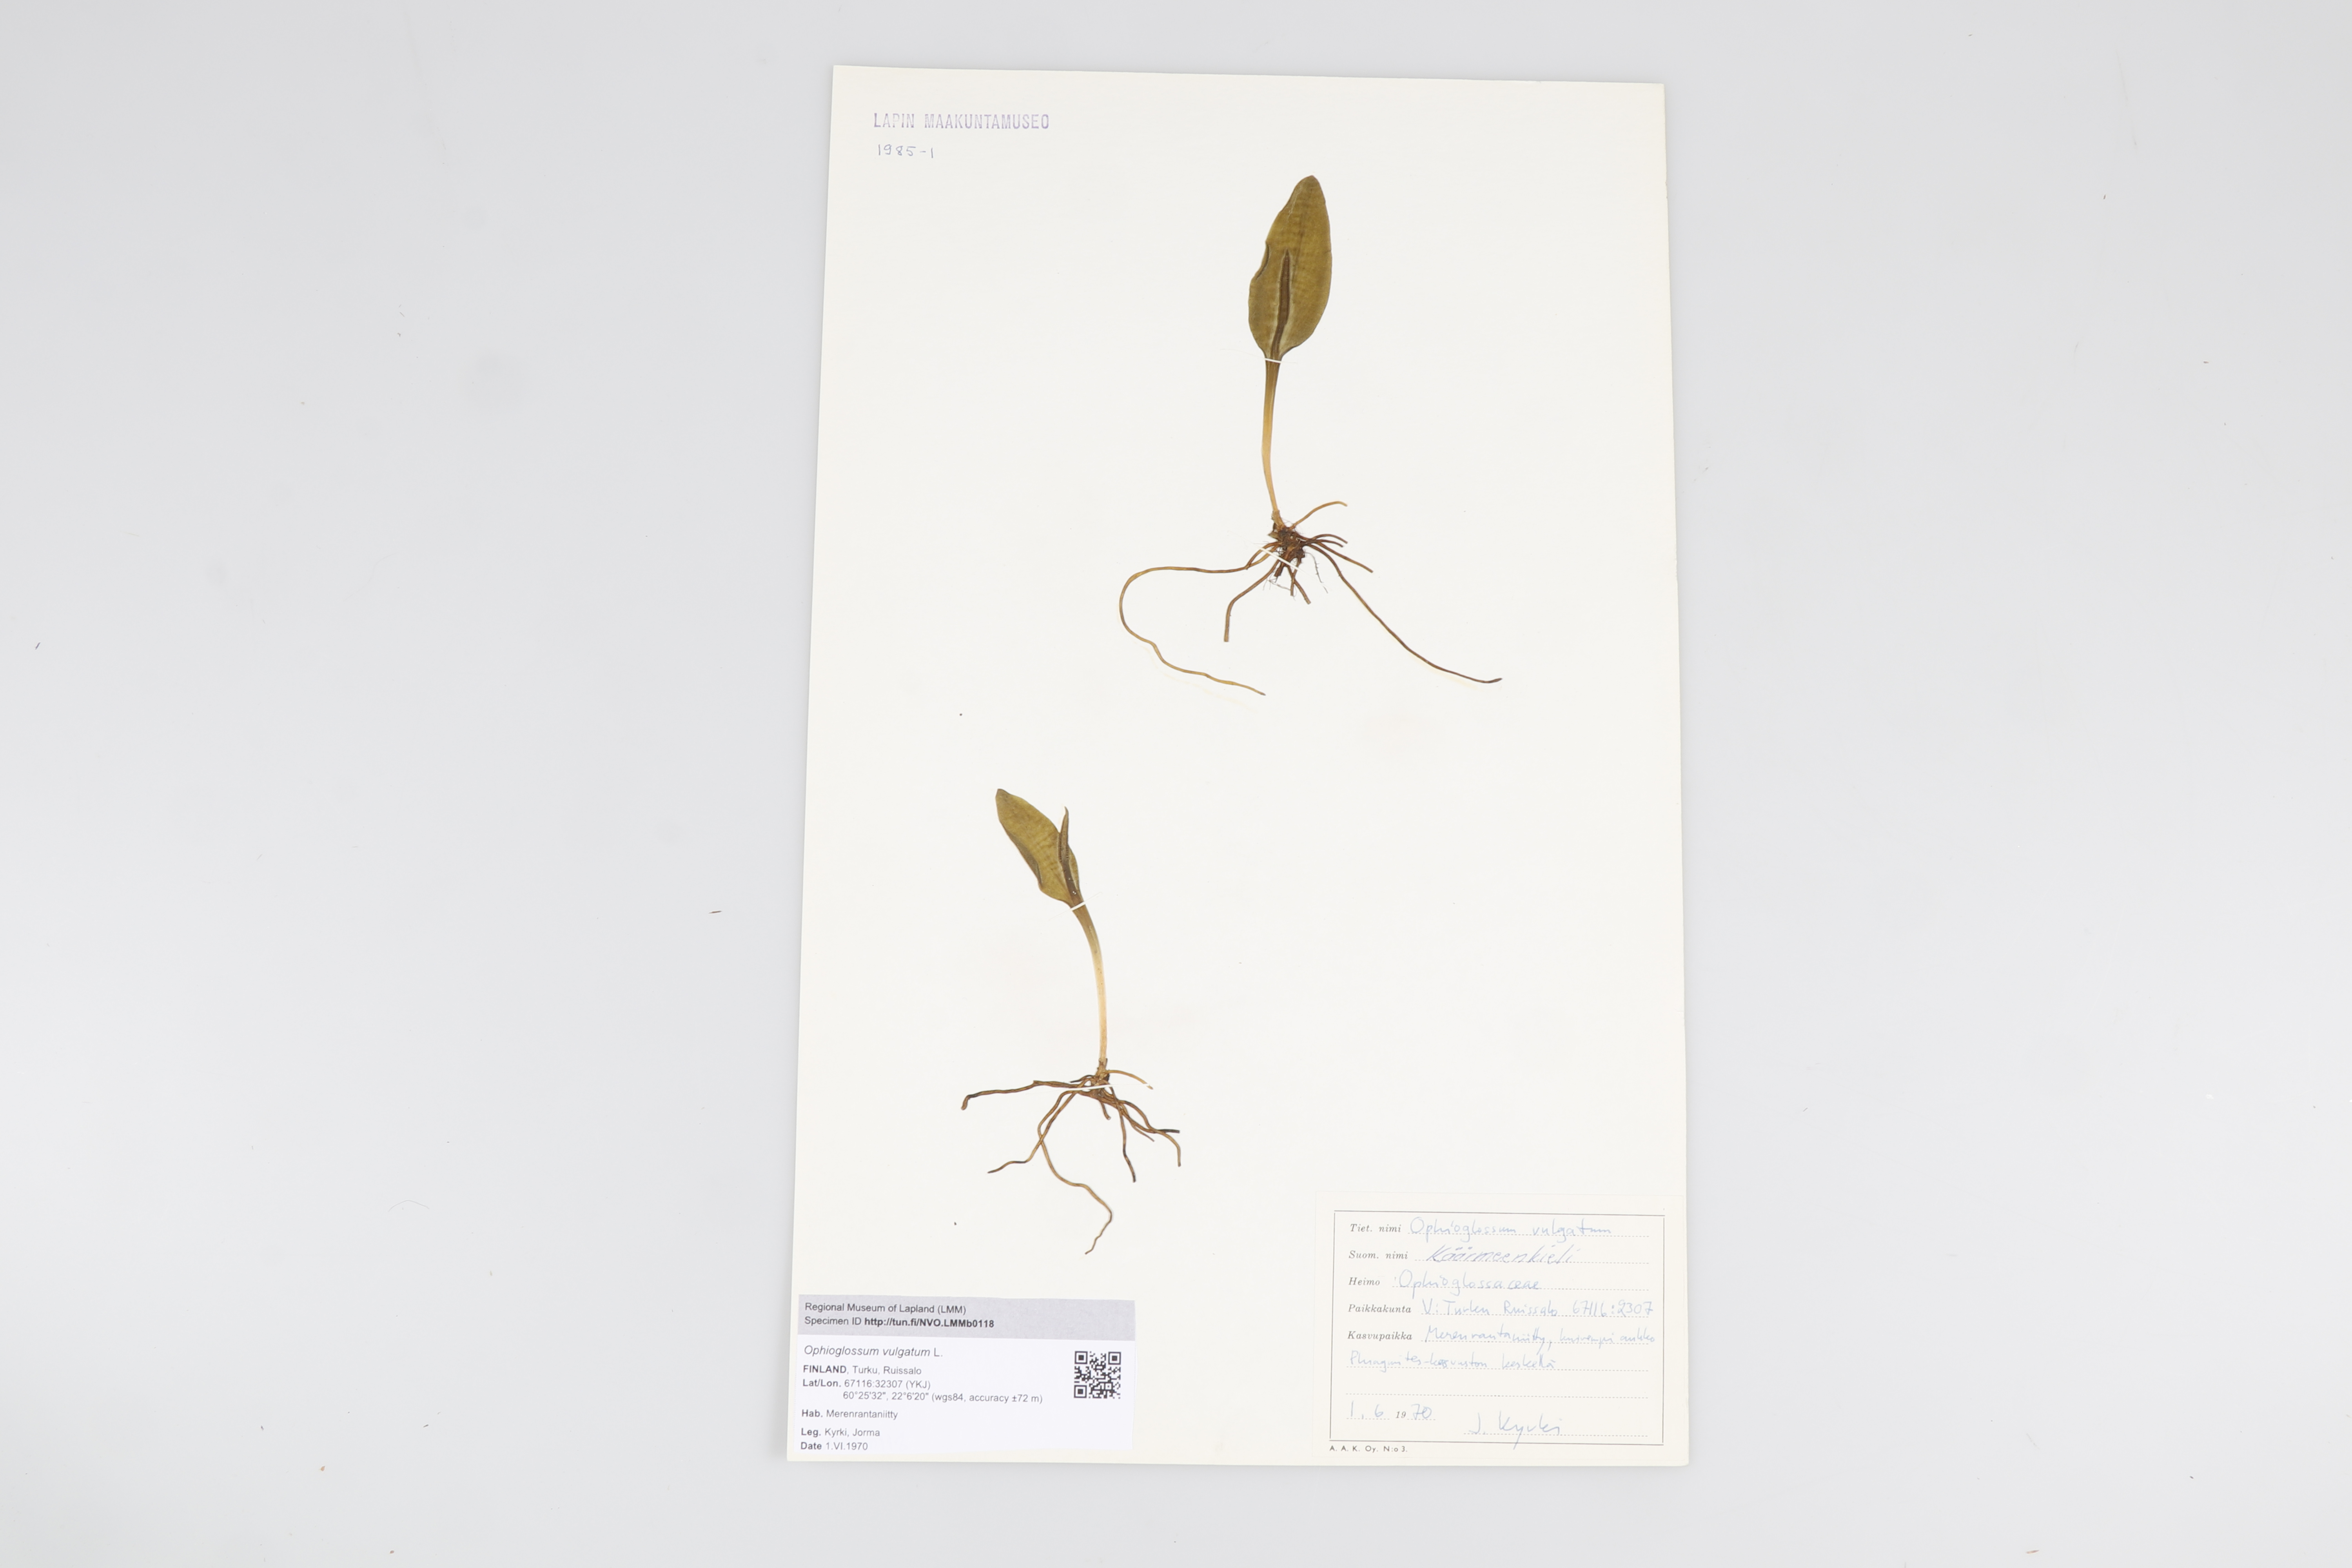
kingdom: Plantae
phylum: Tracheophyta
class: Polypodiopsida
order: Ophioglossales
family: Ophioglossaceae
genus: Ophioglossum
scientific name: Ophioglossum vulgatum
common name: Adder's-tongue
